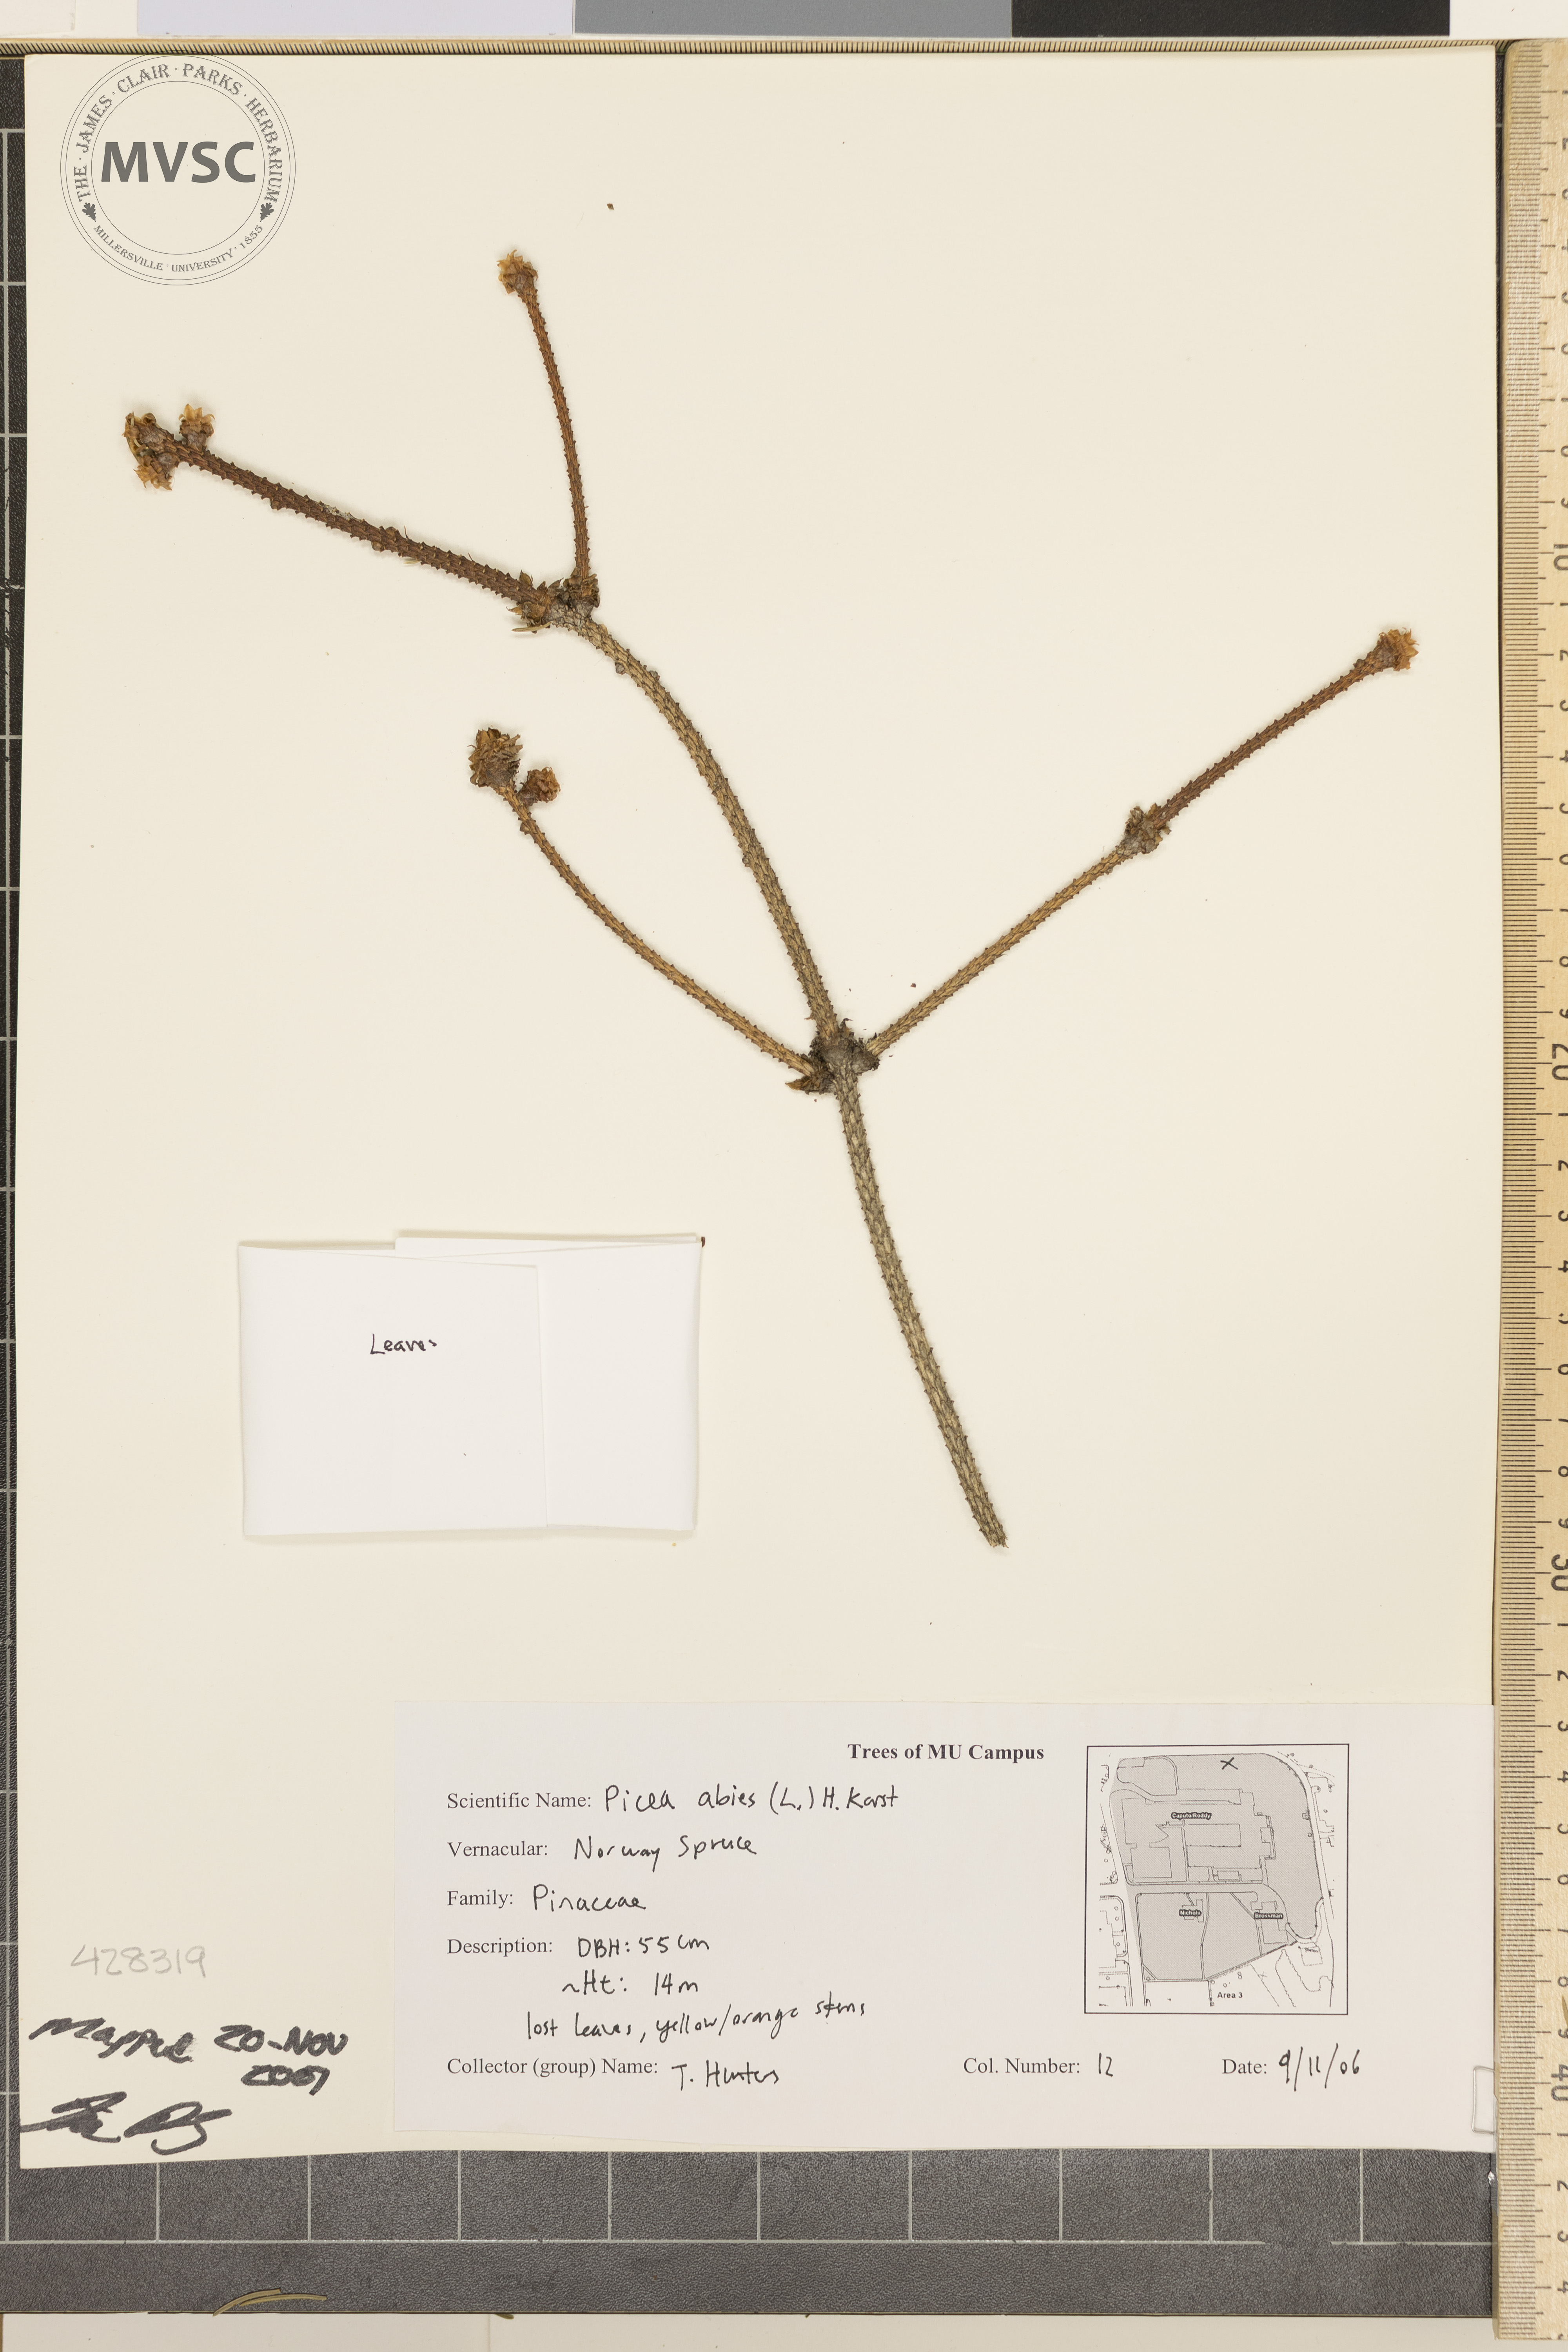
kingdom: Plantae
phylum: Tracheophyta
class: Pinopsida
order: Pinales
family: Pinaceae
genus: Picea
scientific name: Picea abies
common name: Norway Spruce
